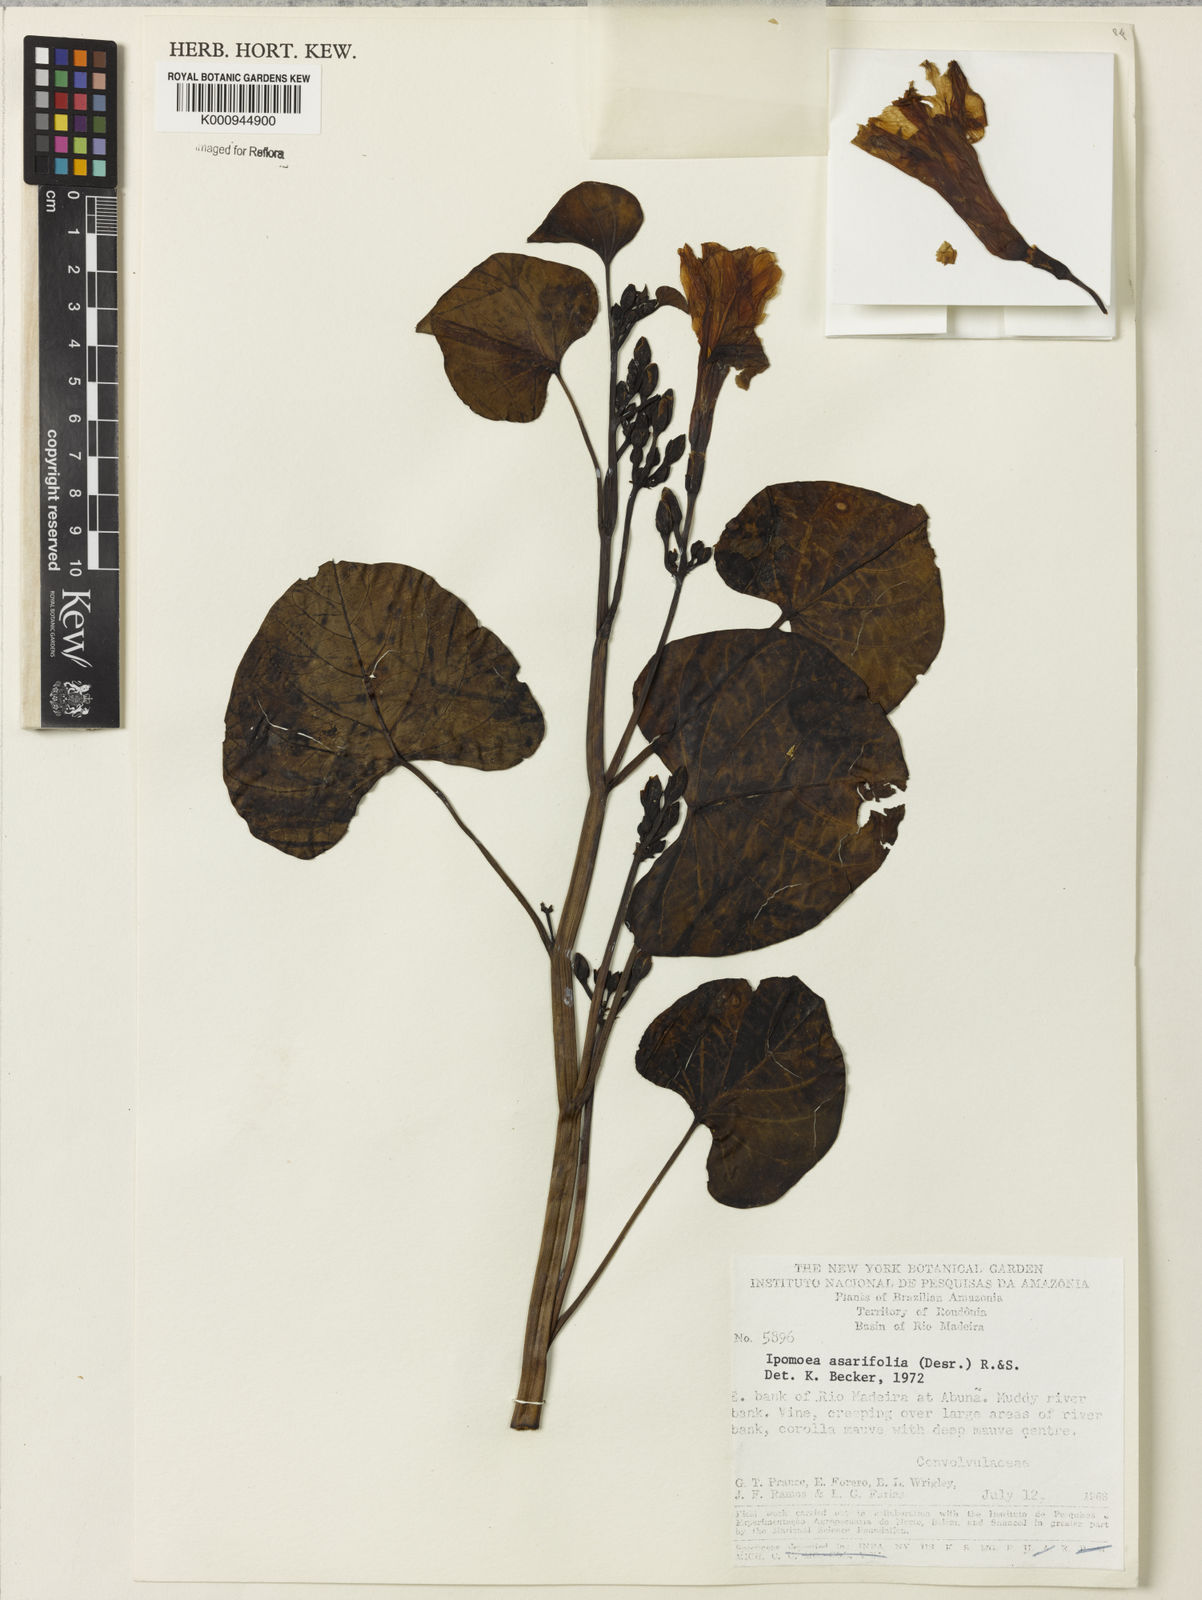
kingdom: Plantae
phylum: Tracheophyta
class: Magnoliopsida
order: Solanales
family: Convolvulaceae
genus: Ipomoea
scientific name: Ipomoea asarifolia
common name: Ginger-leaf morning-glory
